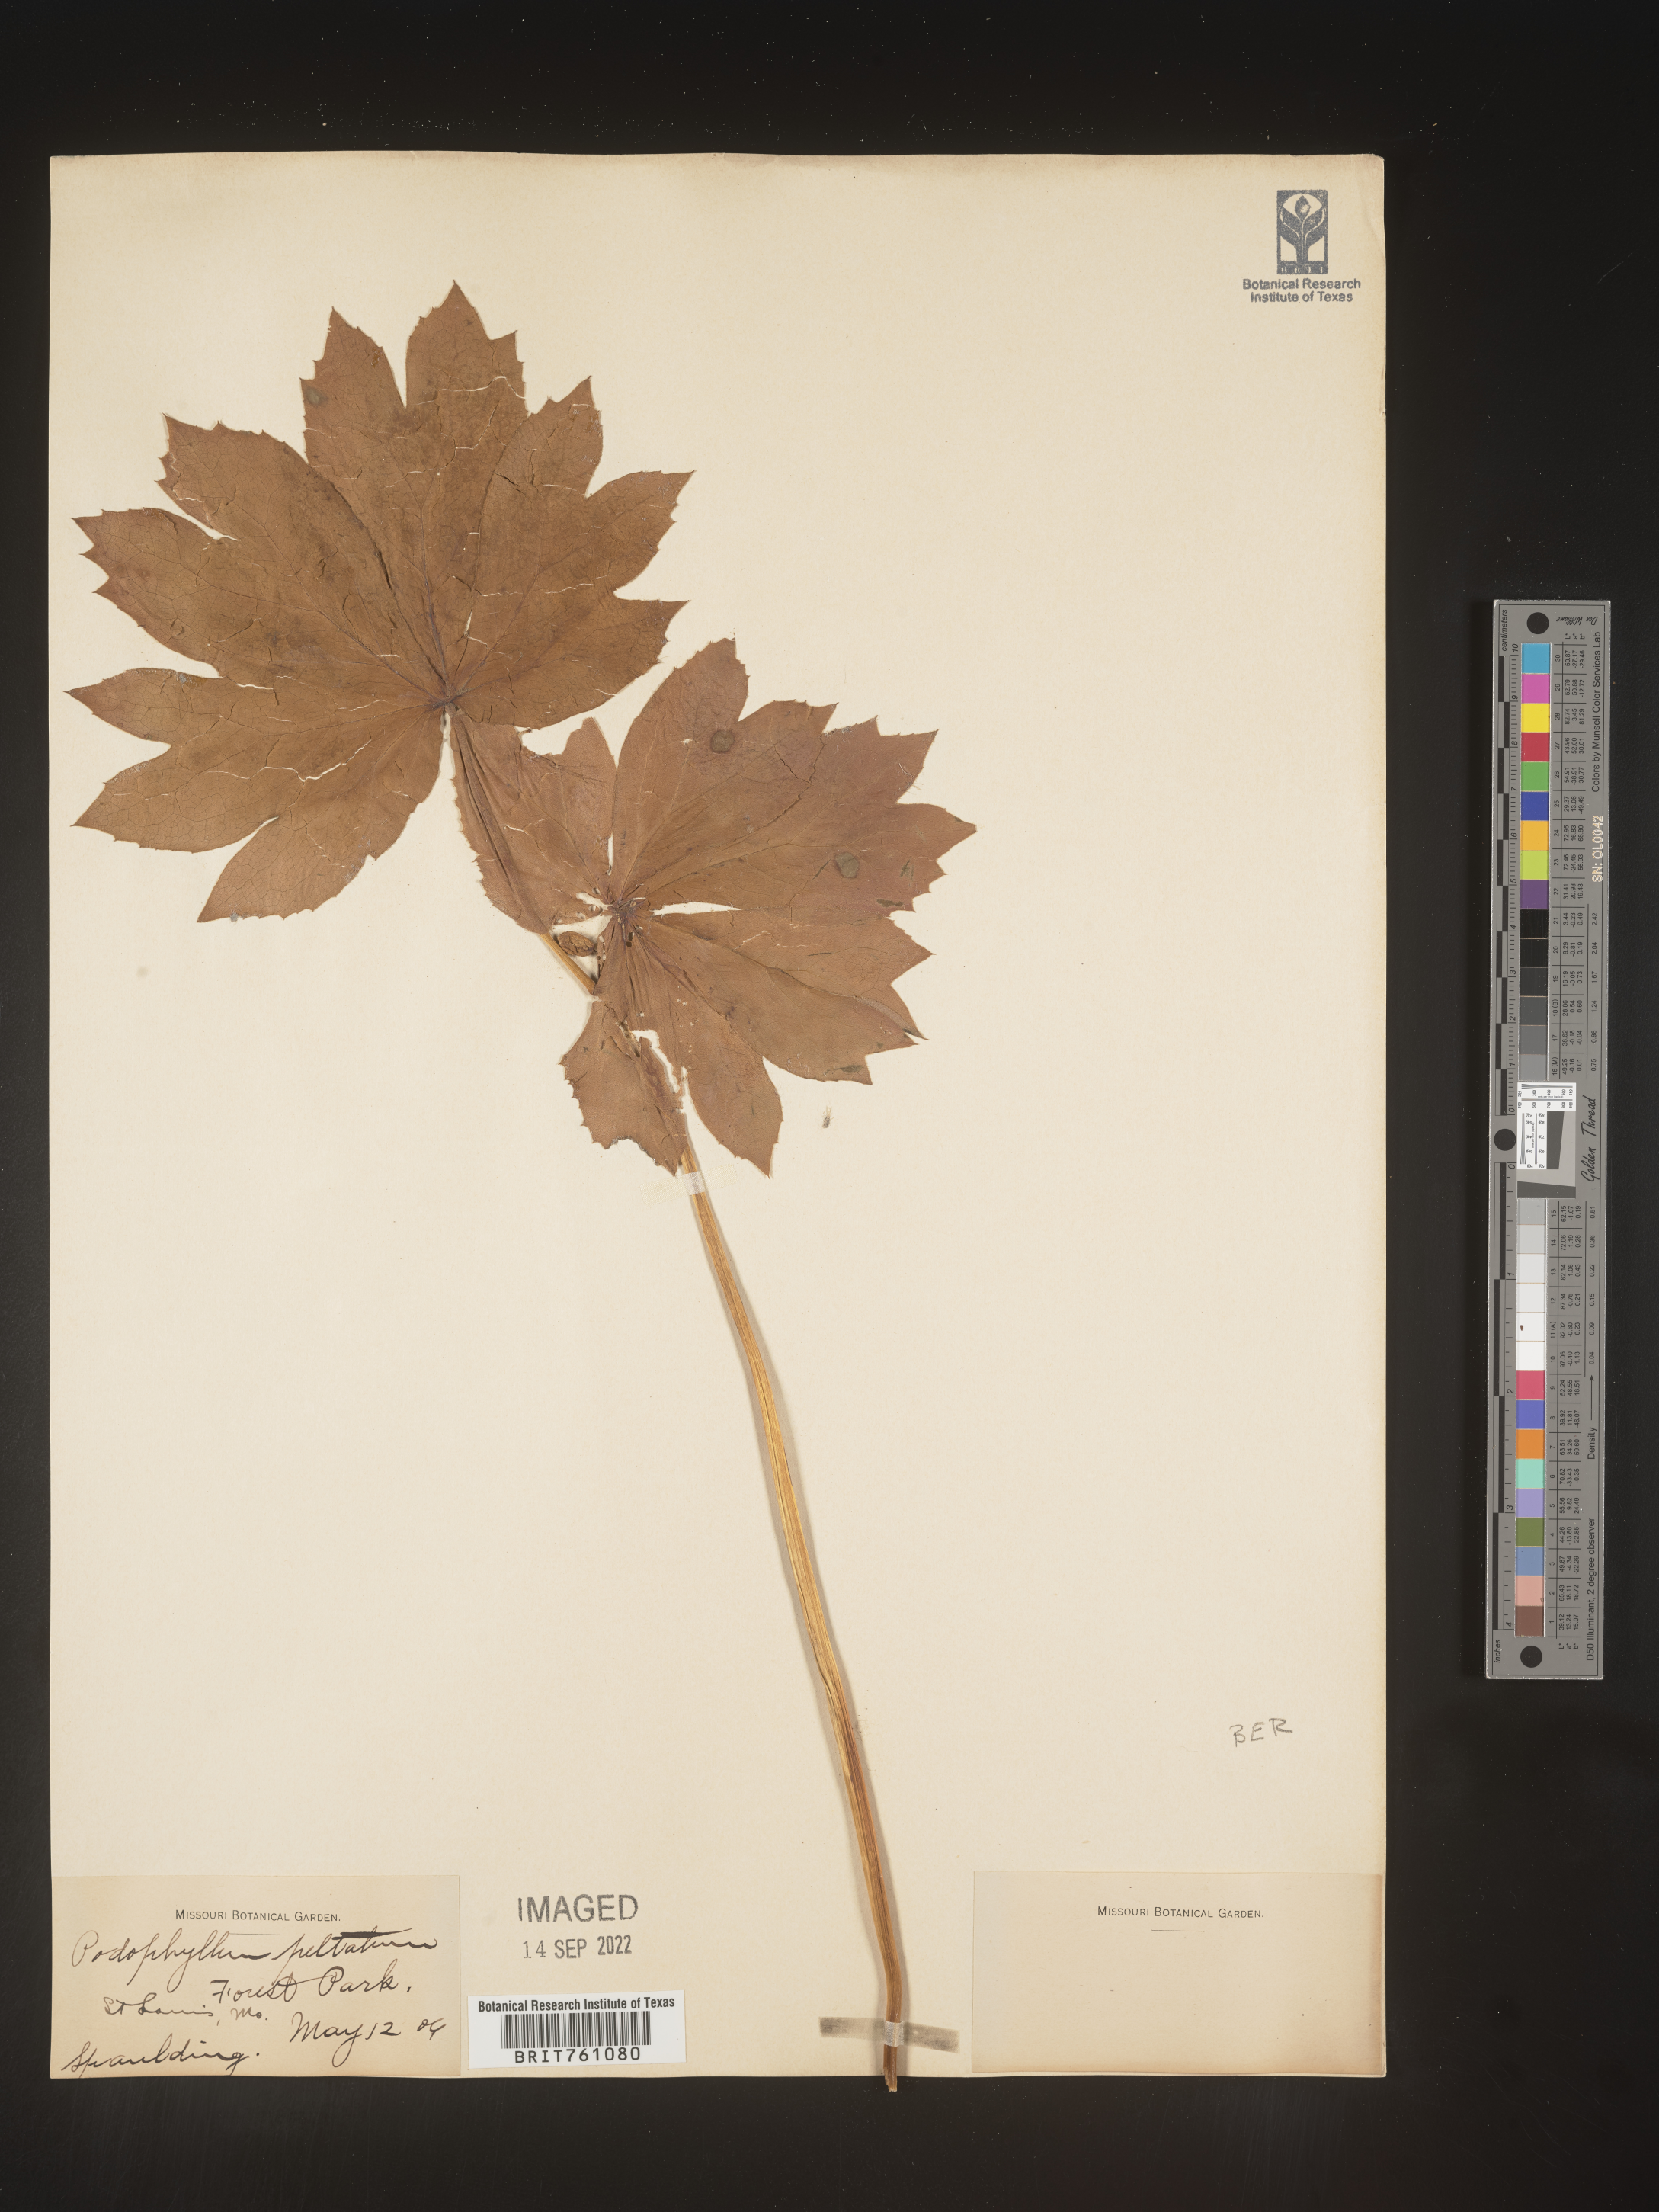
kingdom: Plantae
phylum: Tracheophyta
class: Magnoliopsida
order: Ranunculales
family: Berberidaceae
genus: Podophyllum
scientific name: Podophyllum peltatum
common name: Wild mandrake
